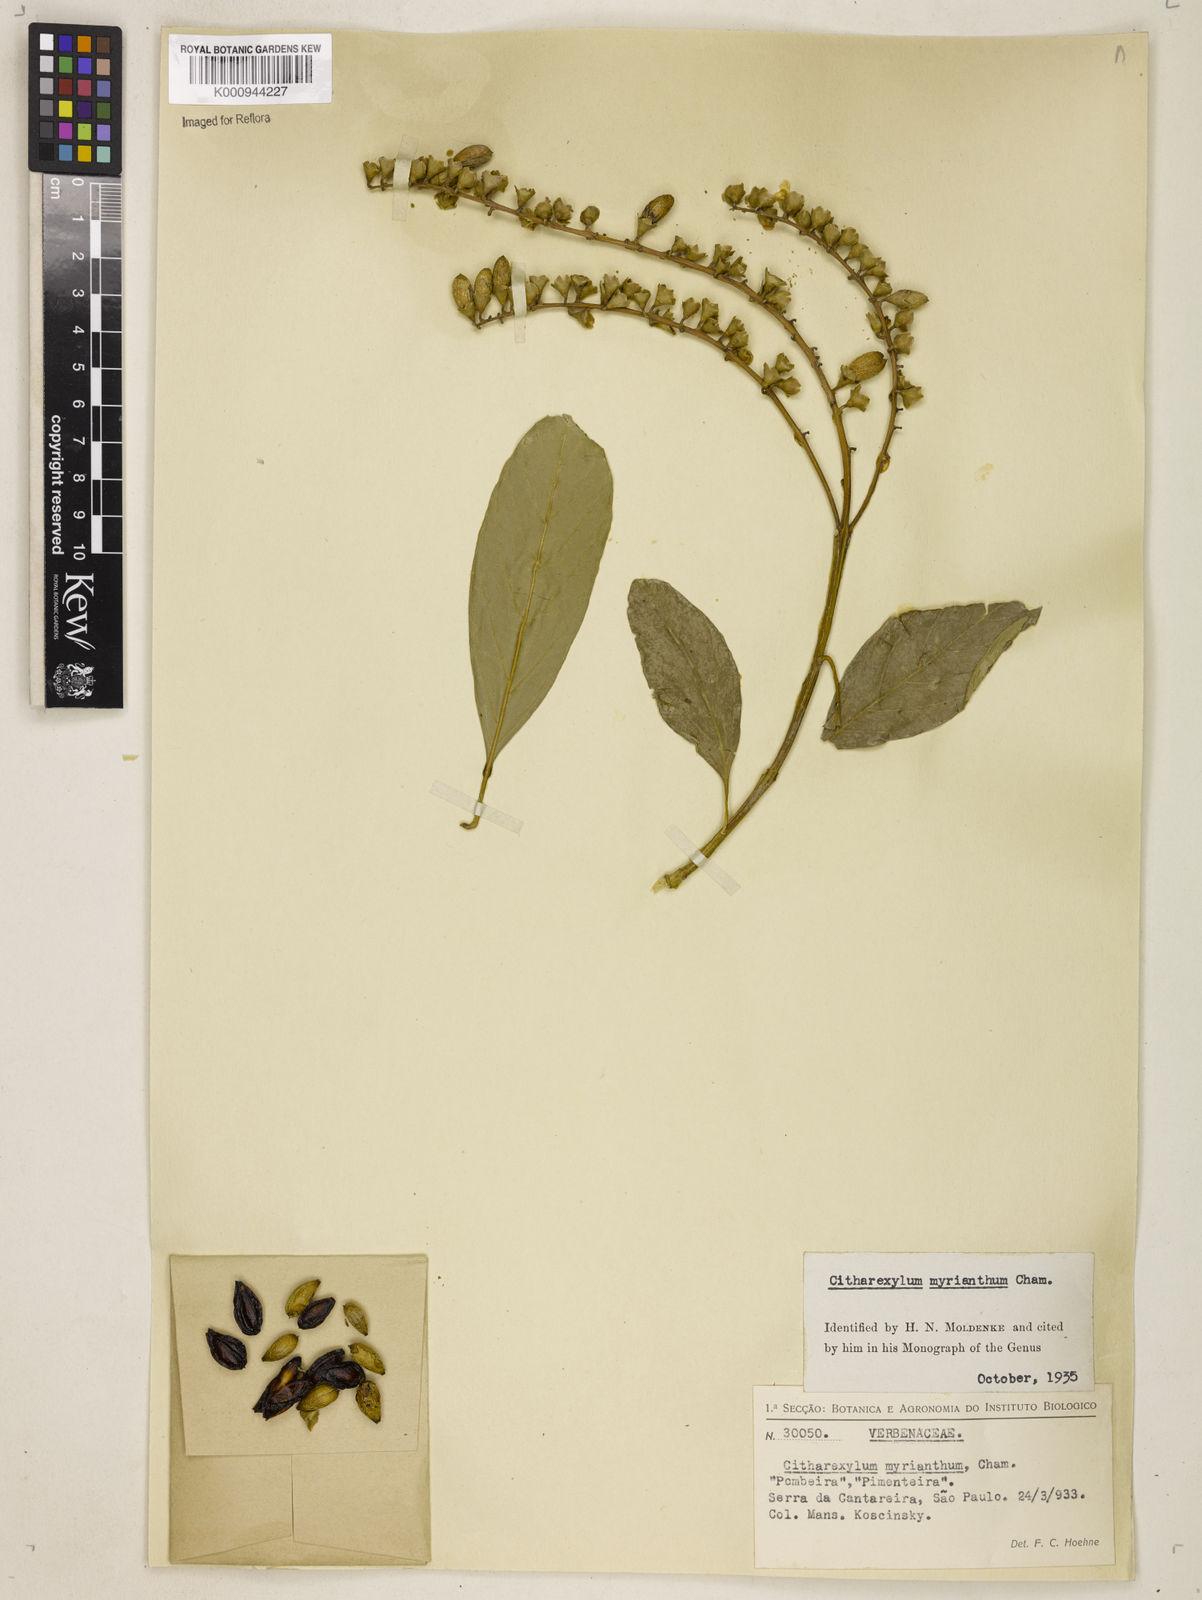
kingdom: Plantae
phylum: Tracheophyta
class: Magnoliopsida
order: Lamiales
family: Verbenaceae
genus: Citharexylum
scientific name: Citharexylum myrianthum
